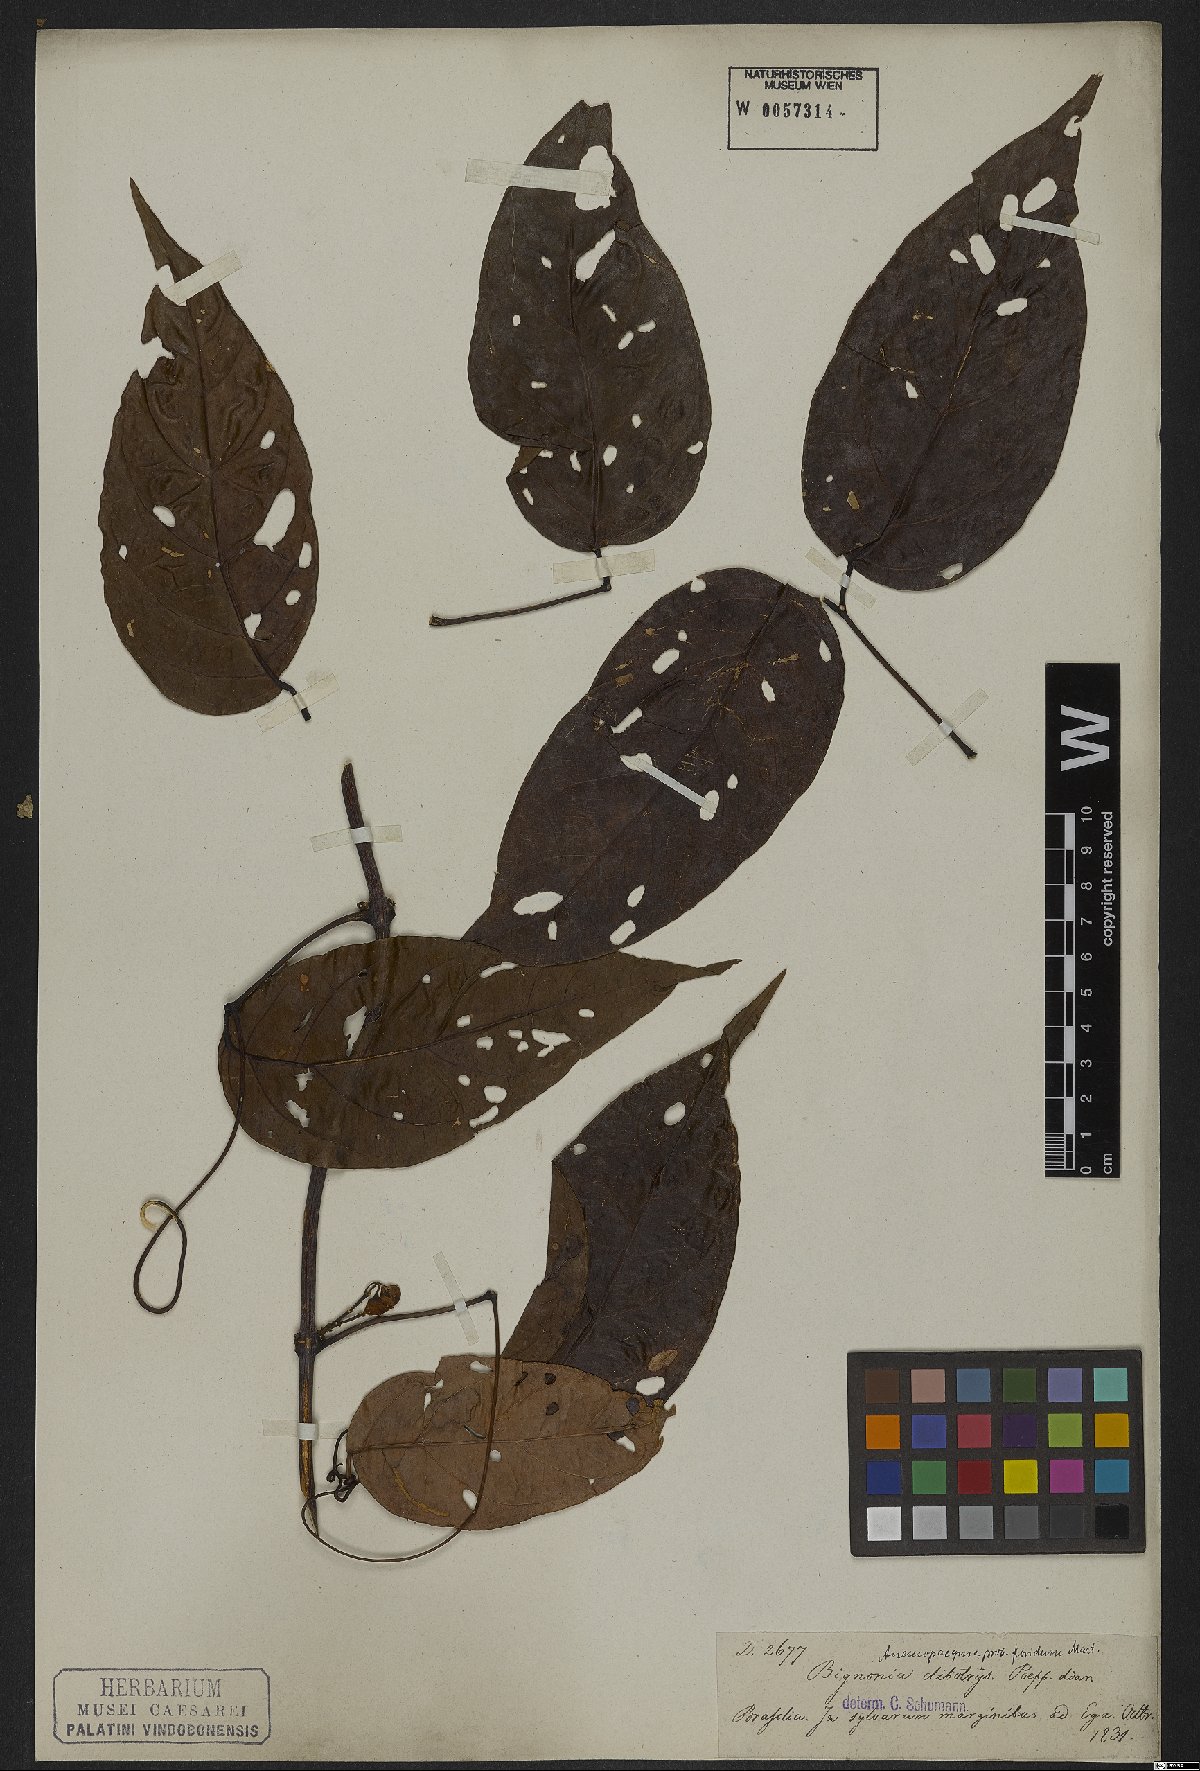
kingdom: Plantae
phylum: Tracheophyta
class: Magnoliopsida
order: Lamiales
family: Bignoniaceae
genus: Anemopaegma
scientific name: Anemopaegma floridum
